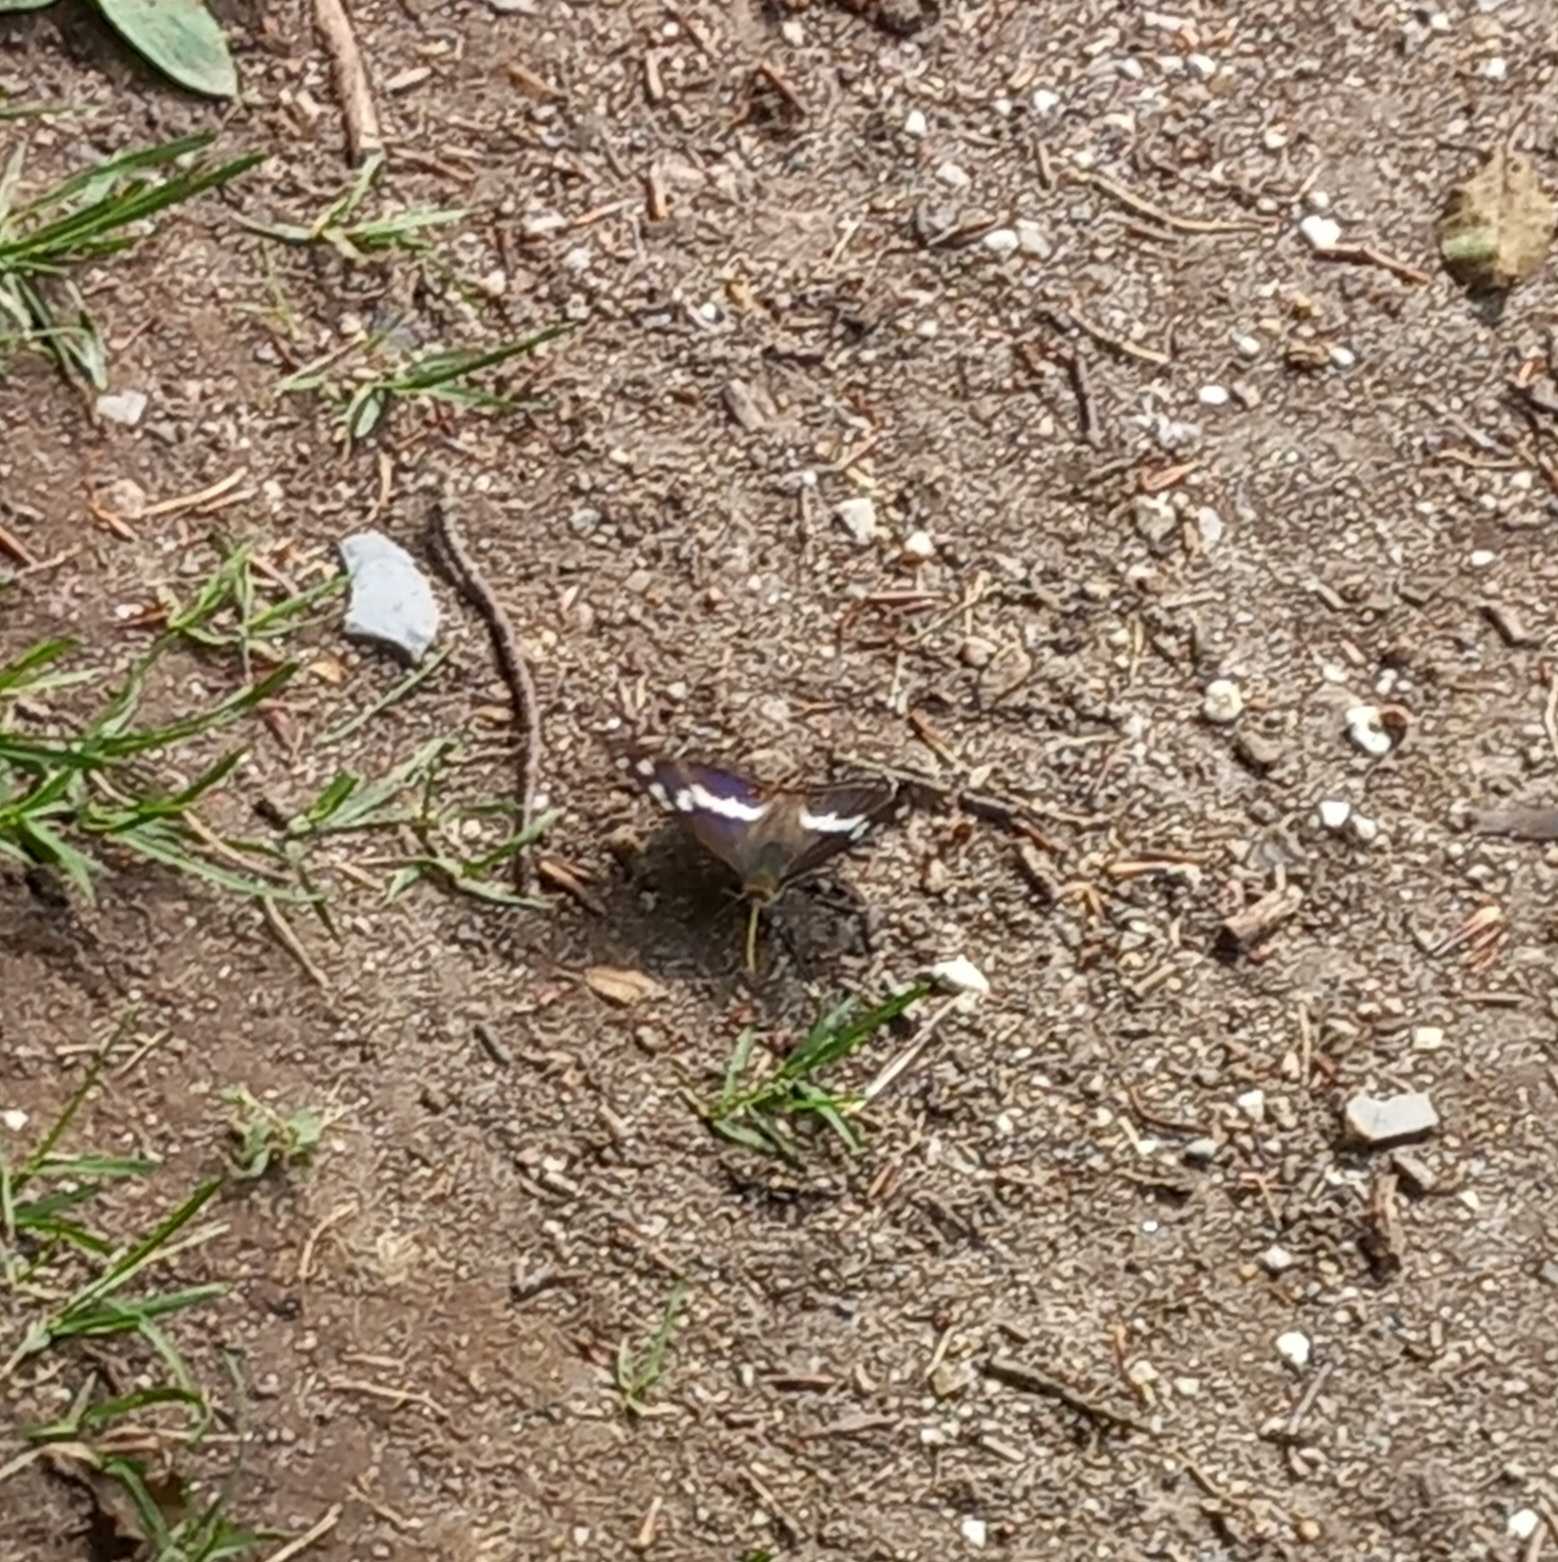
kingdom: Animalia
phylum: Arthropoda
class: Insecta
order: Lepidoptera
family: Nymphalidae
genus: Apatura
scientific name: Apatura iris
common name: Iris
